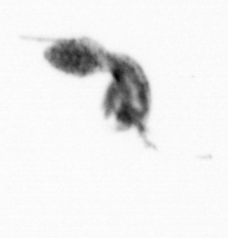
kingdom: Animalia
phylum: Arthropoda
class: Copepoda
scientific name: Copepoda
